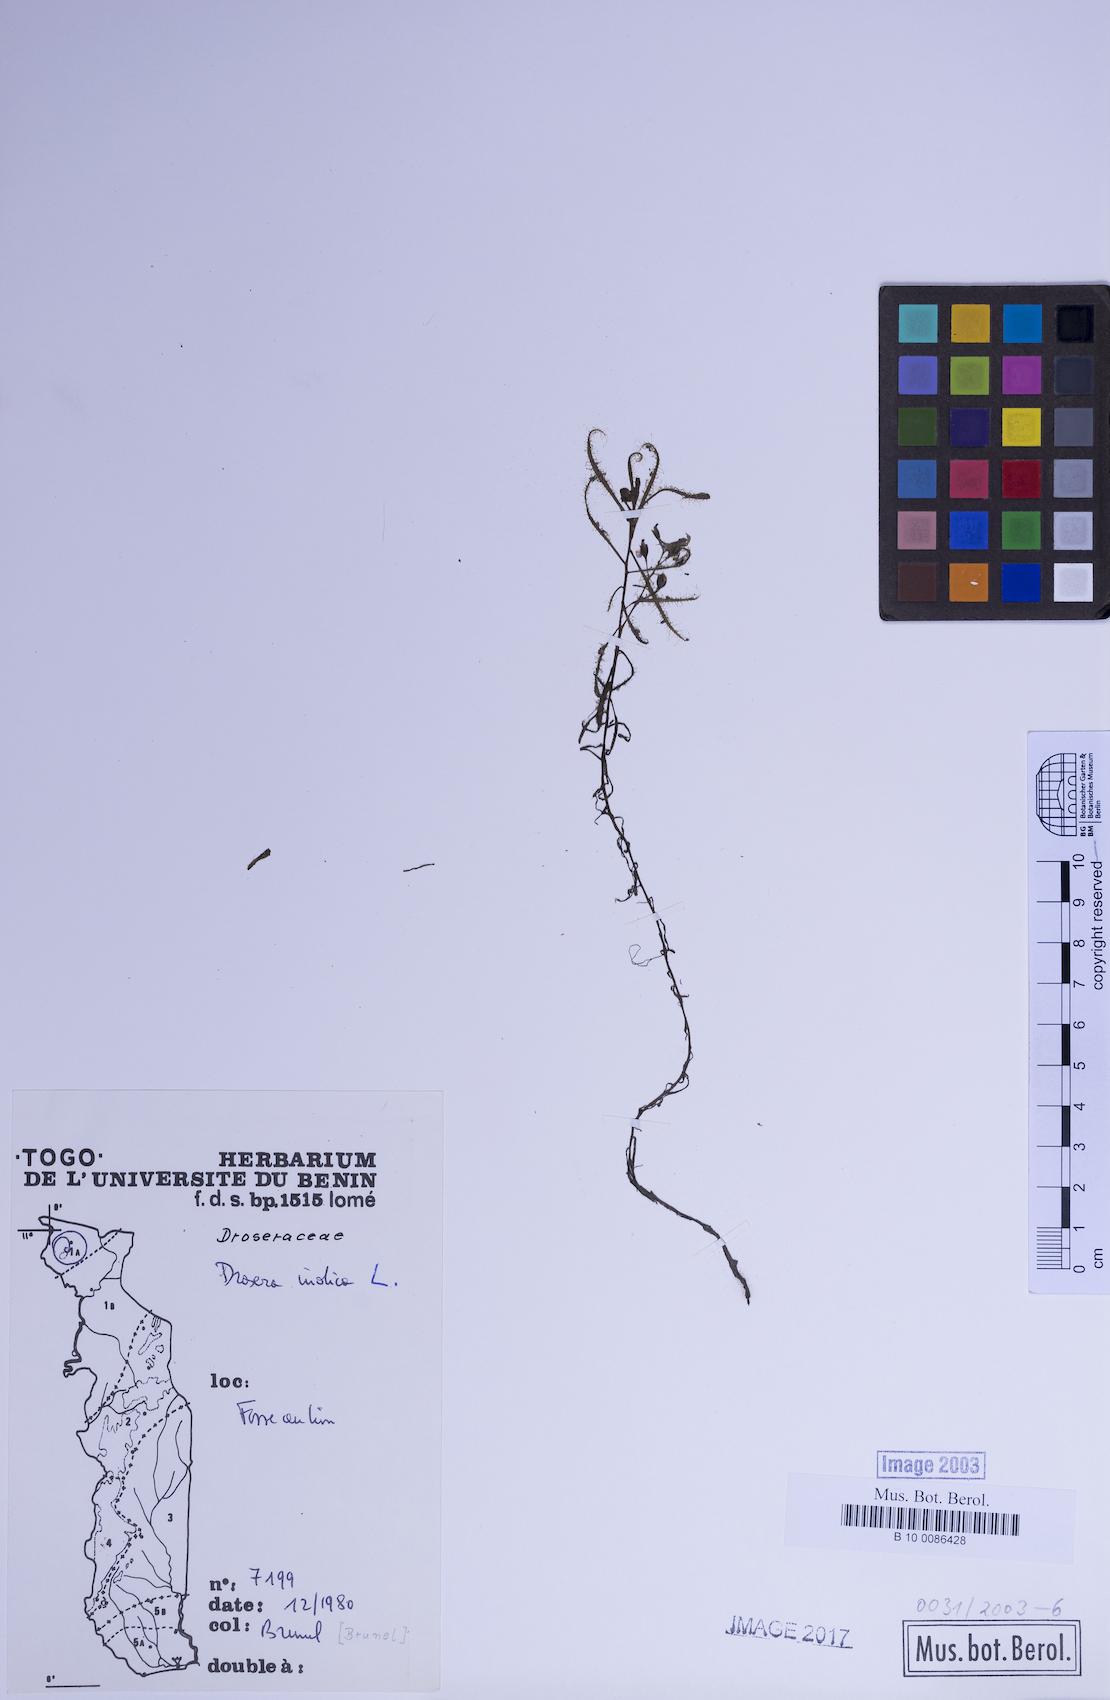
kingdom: Plantae
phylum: Tracheophyta
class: Magnoliopsida
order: Caryophyllales
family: Droseraceae
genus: Drosera
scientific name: Drosera indica
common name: Indian sundew
